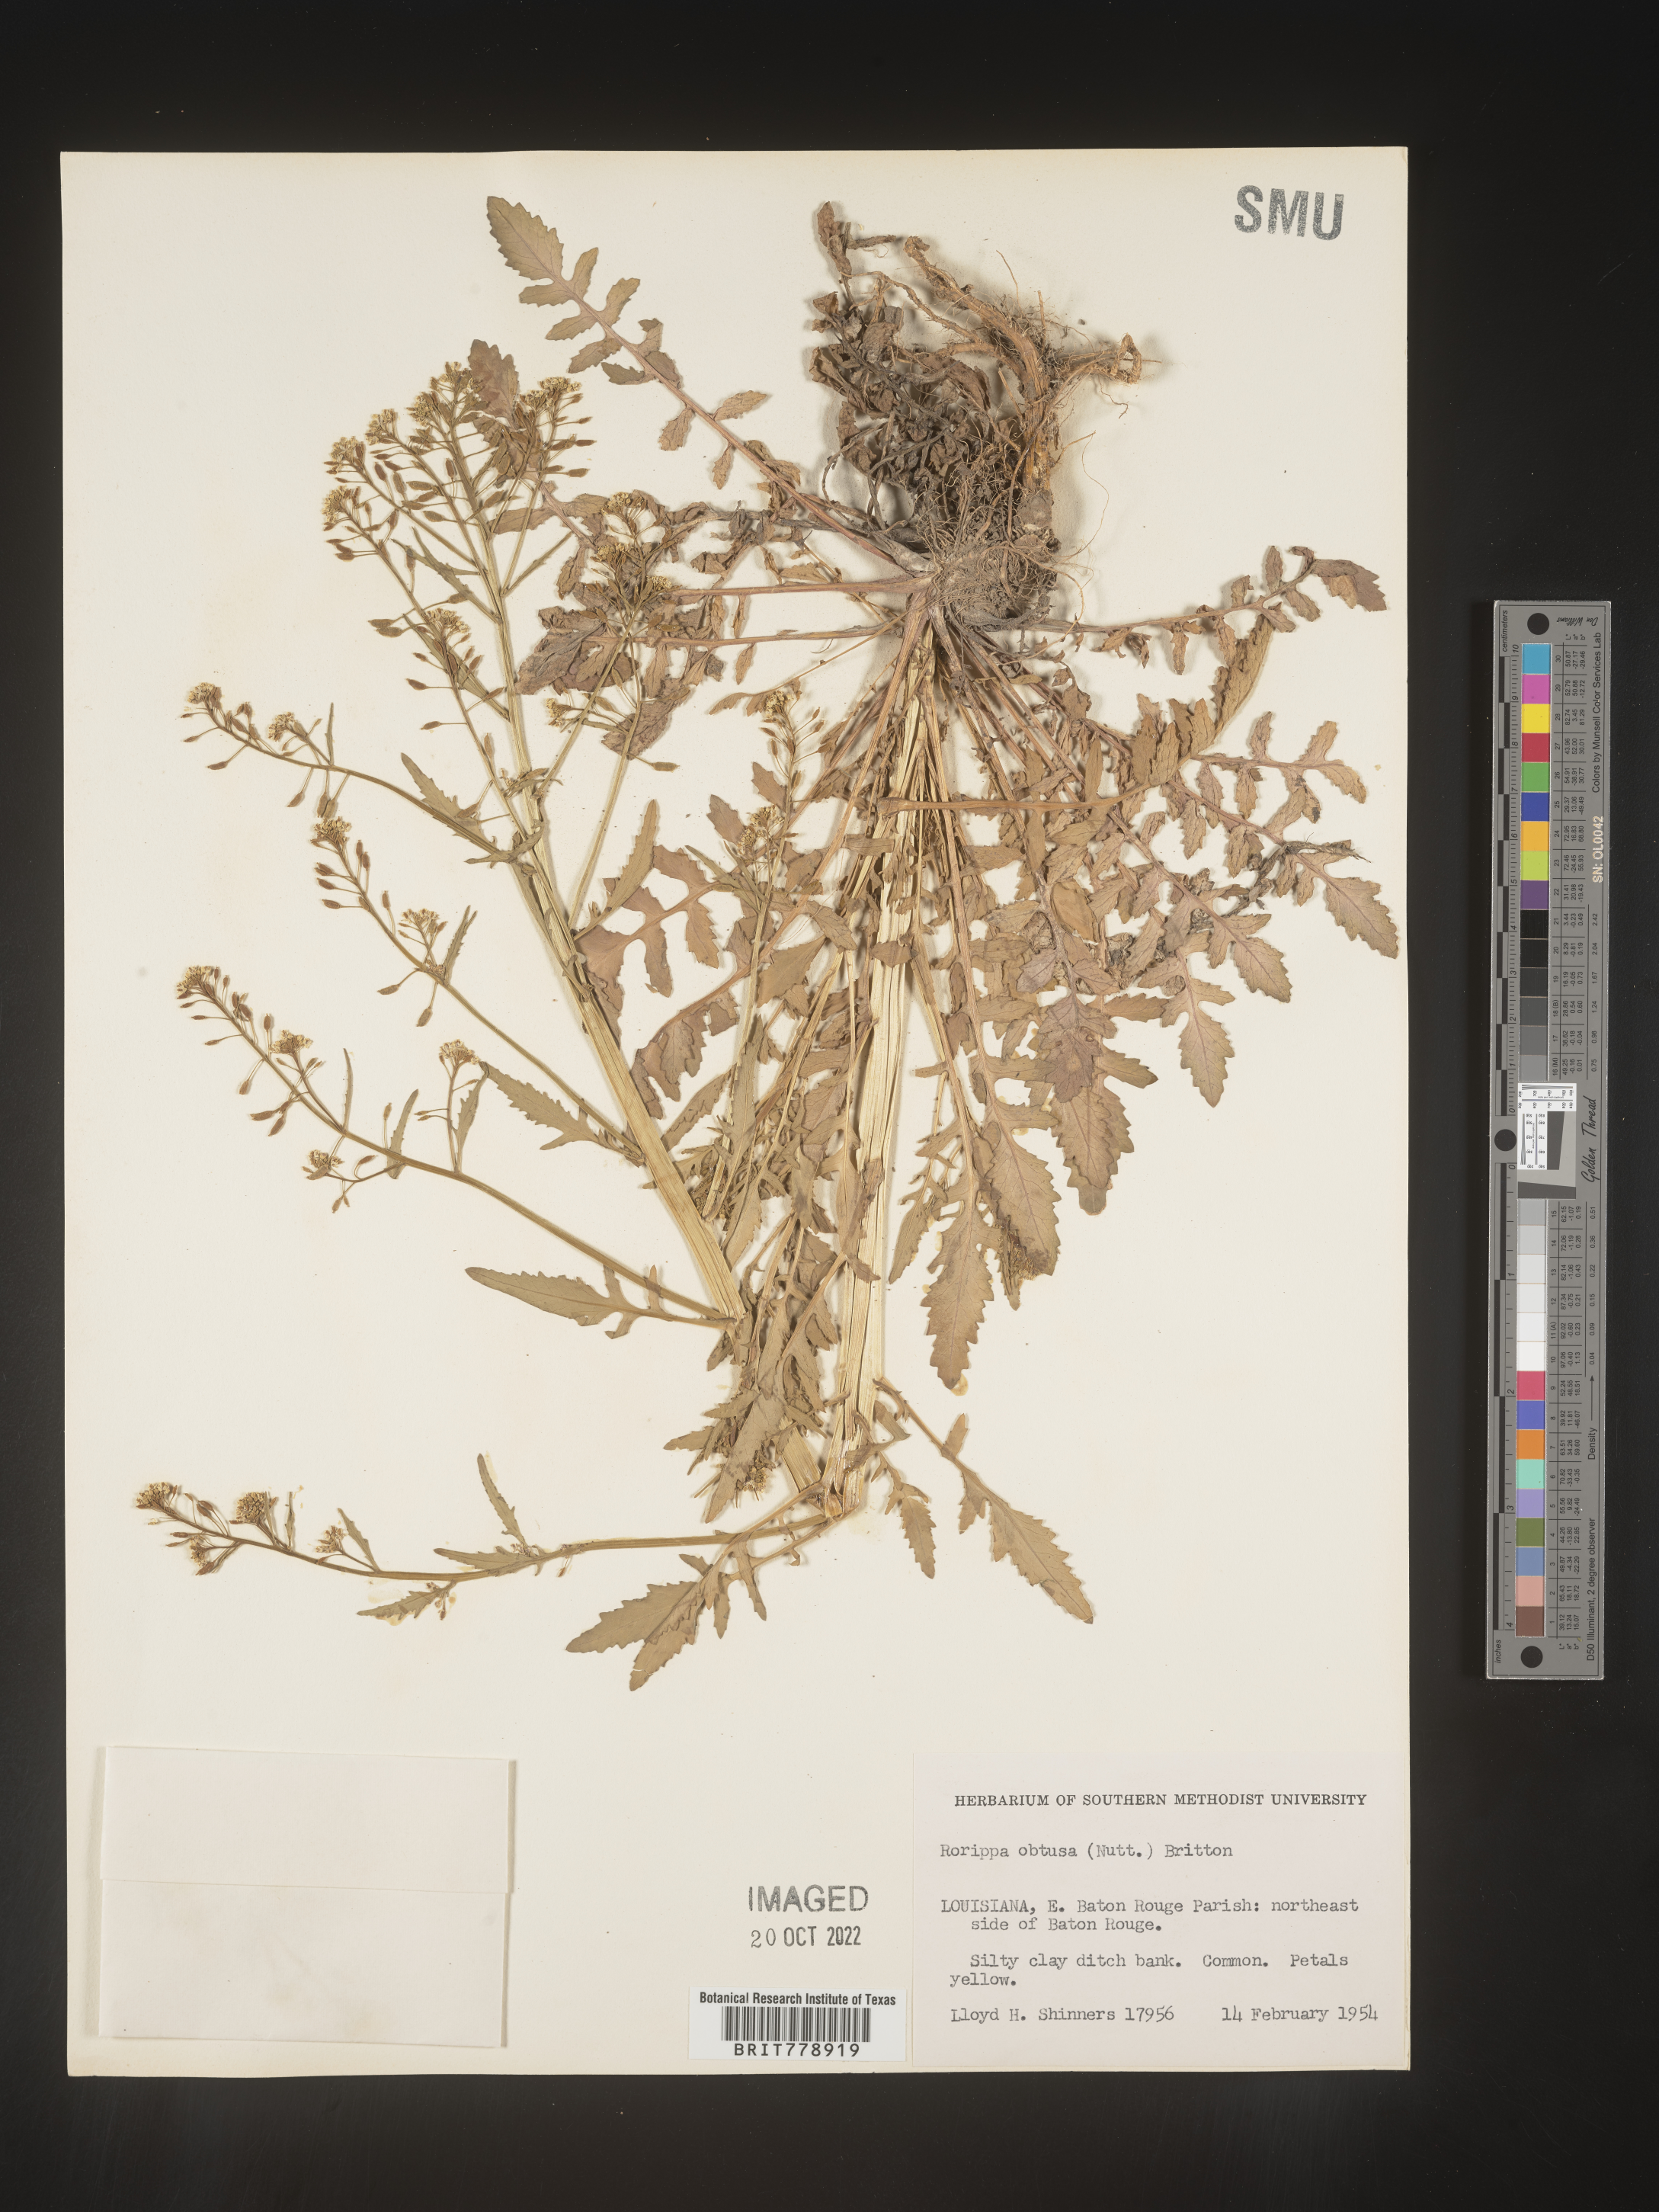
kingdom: Plantae
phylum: Tracheophyta
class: Magnoliopsida
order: Brassicales
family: Brassicaceae
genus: Rorippa
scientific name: Rorippa teres
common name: Southern marsh yellowcress
